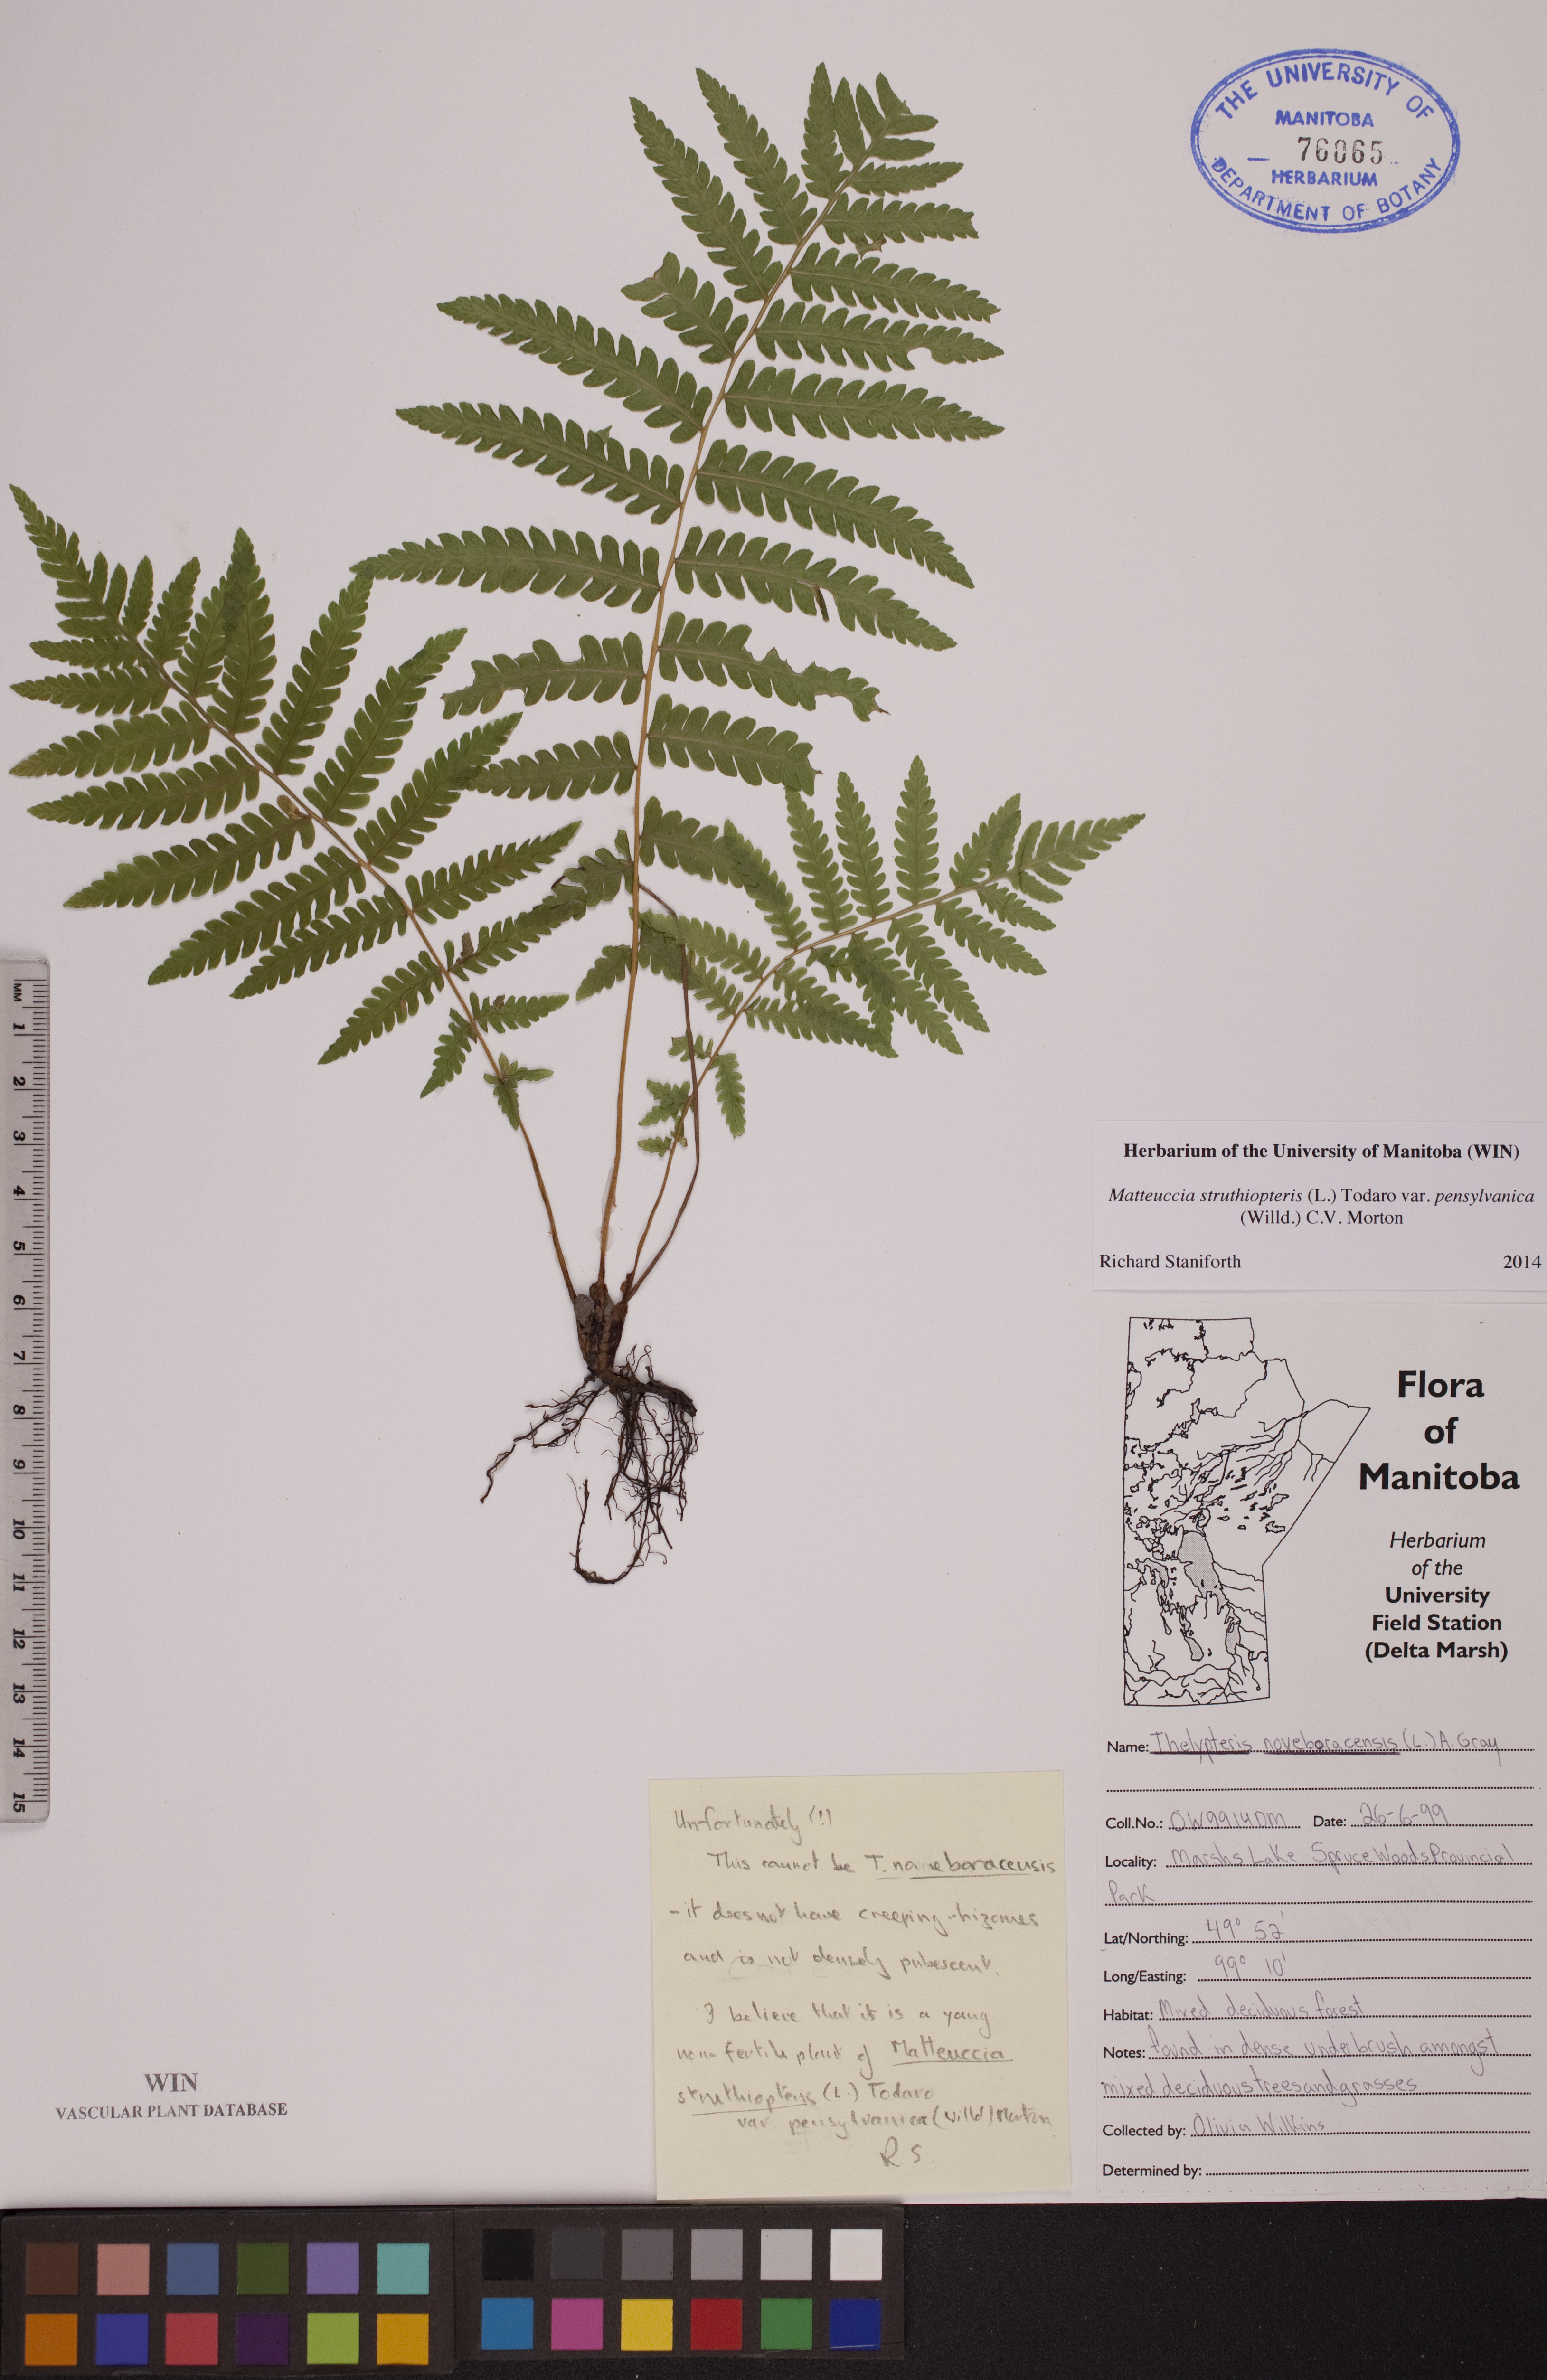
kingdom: Plantae
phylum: Tracheophyta
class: Polypodiopsida
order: Polypodiales
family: Onocleaceae
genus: Matteuccia
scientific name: Matteuccia pensylvanica
